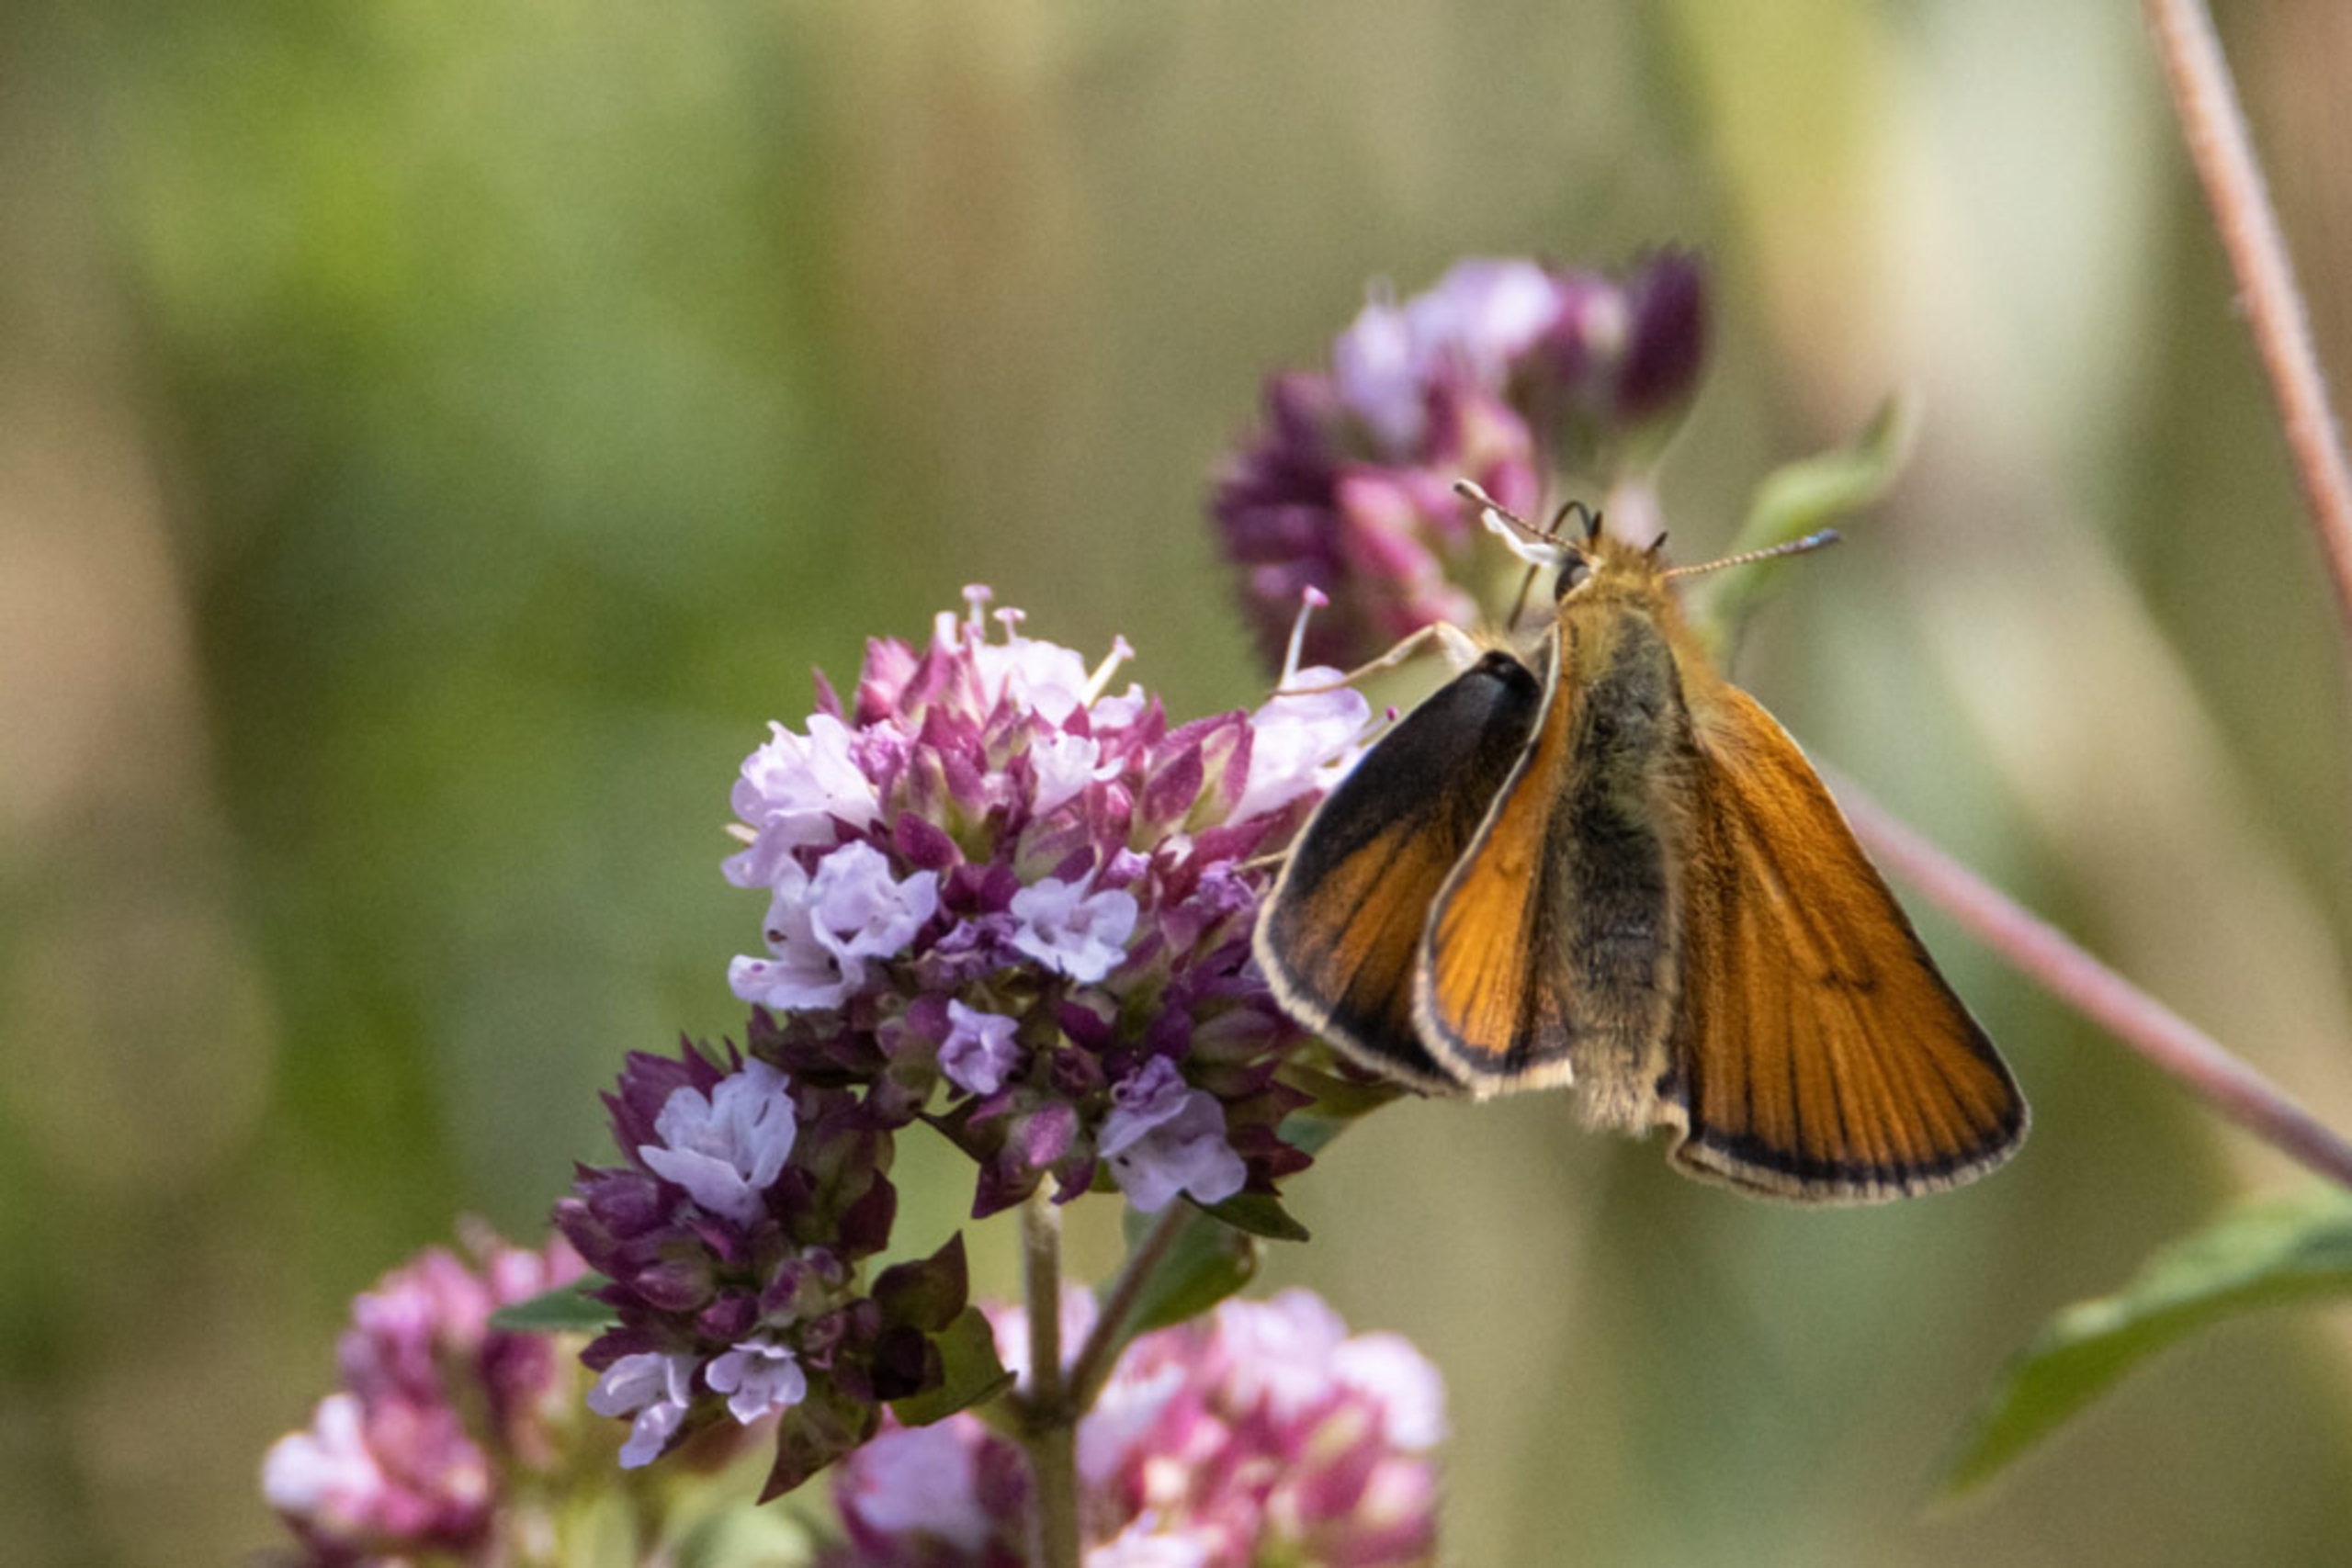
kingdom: Animalia
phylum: Arthropoda
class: Insecta
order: Lepidoptera
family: Hesperiidae
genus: Thymelicus
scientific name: Thymelicus lineola
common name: Stregbredpande
